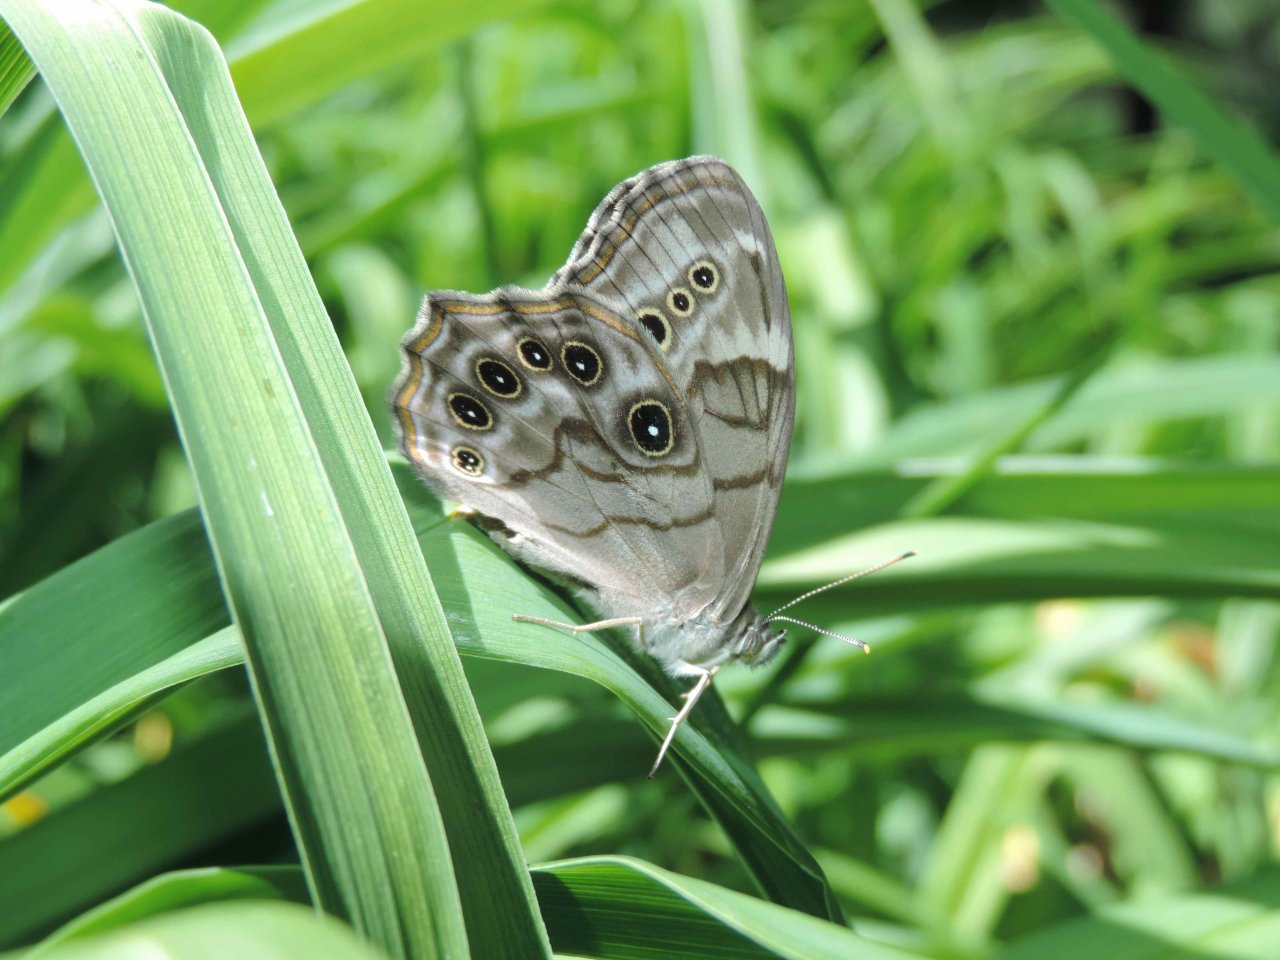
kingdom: Animalia
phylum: Arthropoda
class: Insecta
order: Lepidoptera
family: Nymphalidae
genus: Lethe
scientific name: Lethe anthedon
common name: Northern Pearly-Eye
